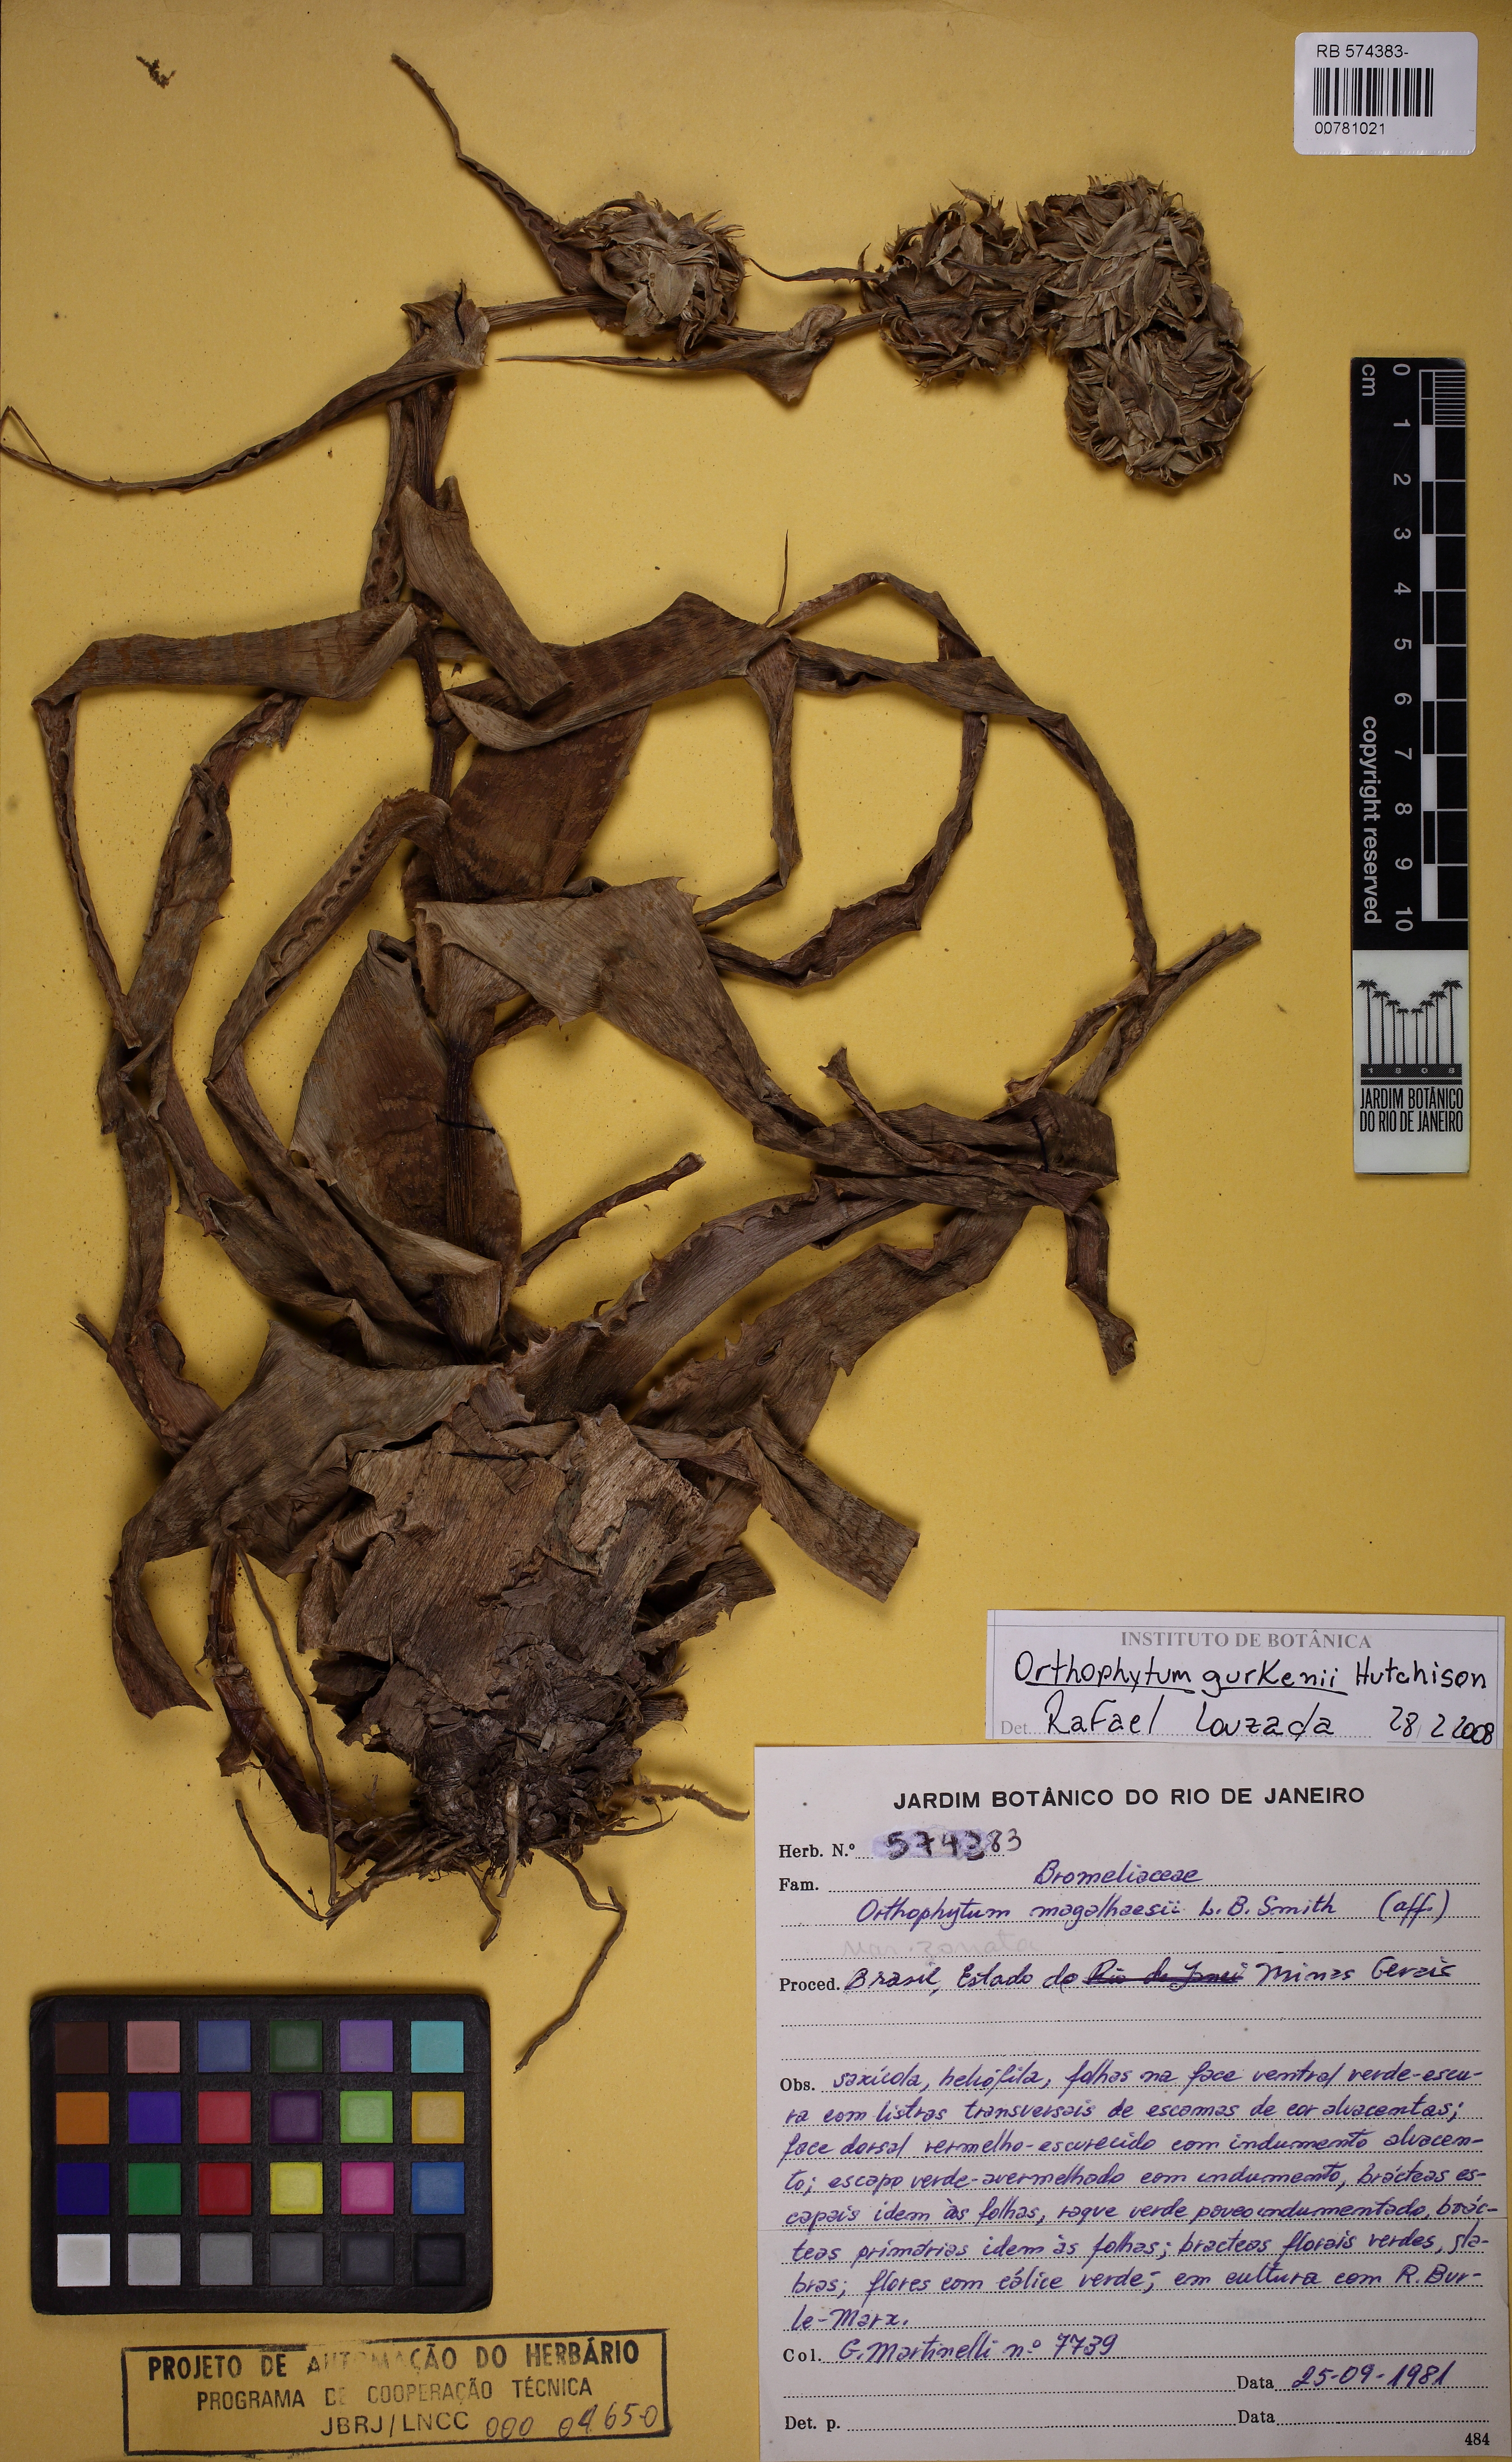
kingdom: Plantae
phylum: Tracheophyta
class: Liliopsida
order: Poales
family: Bromeliaceae
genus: Orthophytum
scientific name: Orthophytum gurkenii
